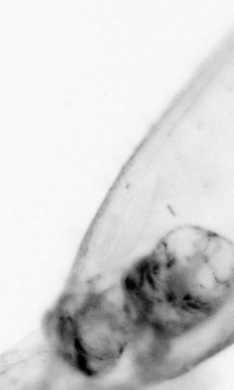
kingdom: Animalia
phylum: Chaetognatha
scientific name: Chaetognatha
